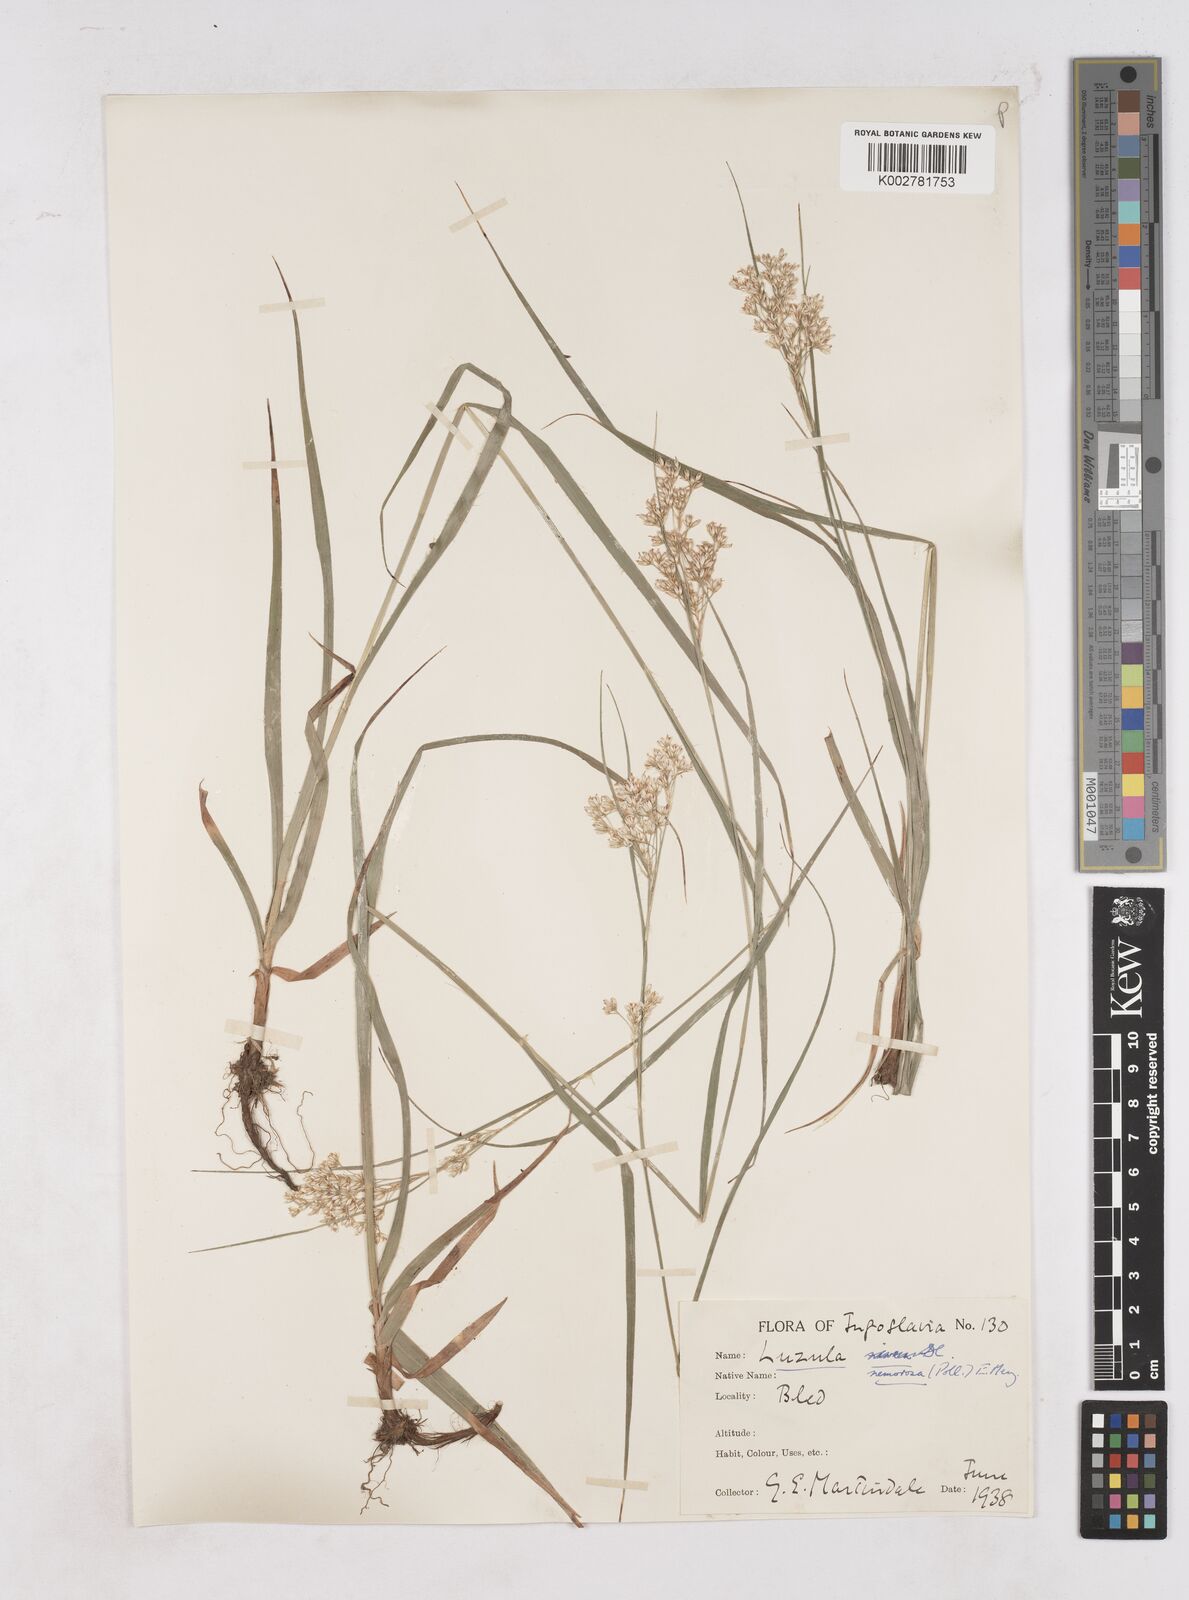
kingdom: Plantae
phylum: Tracheophyta
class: Liliopsida
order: Poales
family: Juncaceae
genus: Luzula
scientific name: Luzula luzuloides
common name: White wood-rush
